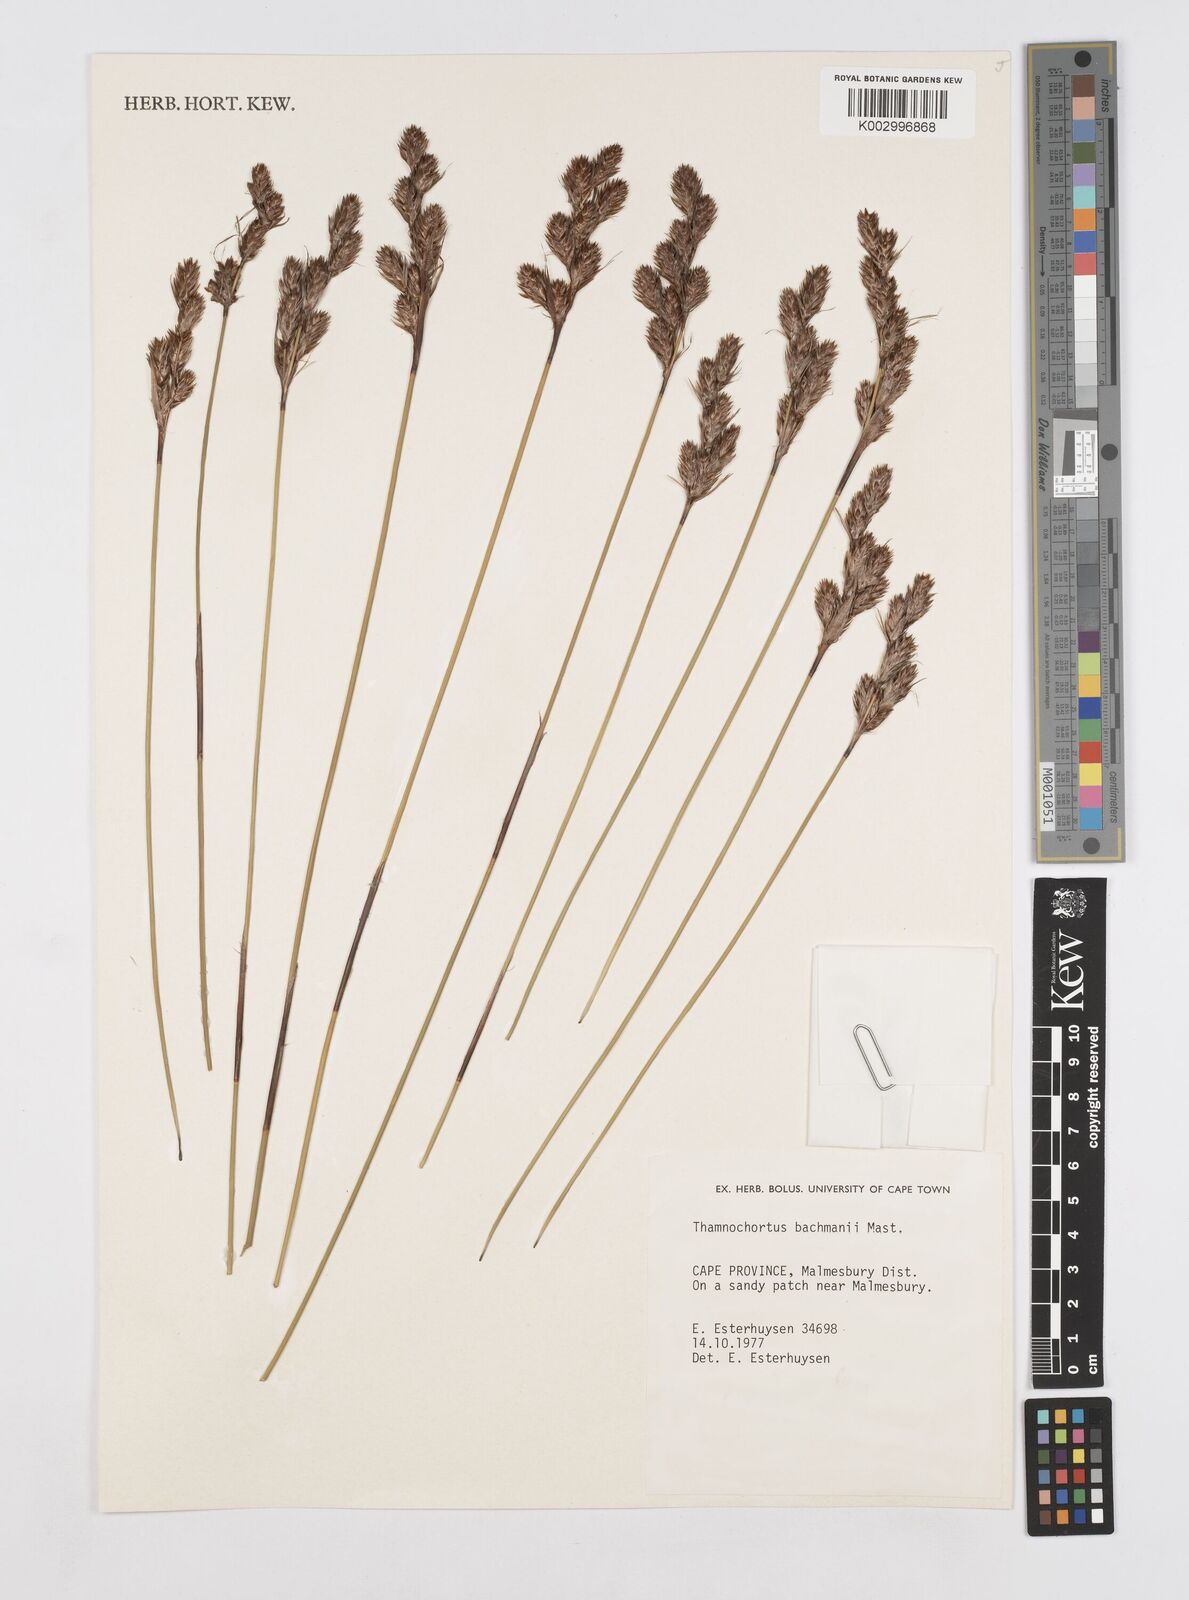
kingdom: Plantae
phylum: Tracheophyta
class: Liliopsida
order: Poales
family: Restionaceae
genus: Thamnochortus
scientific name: Thamnochortus bachmannii
